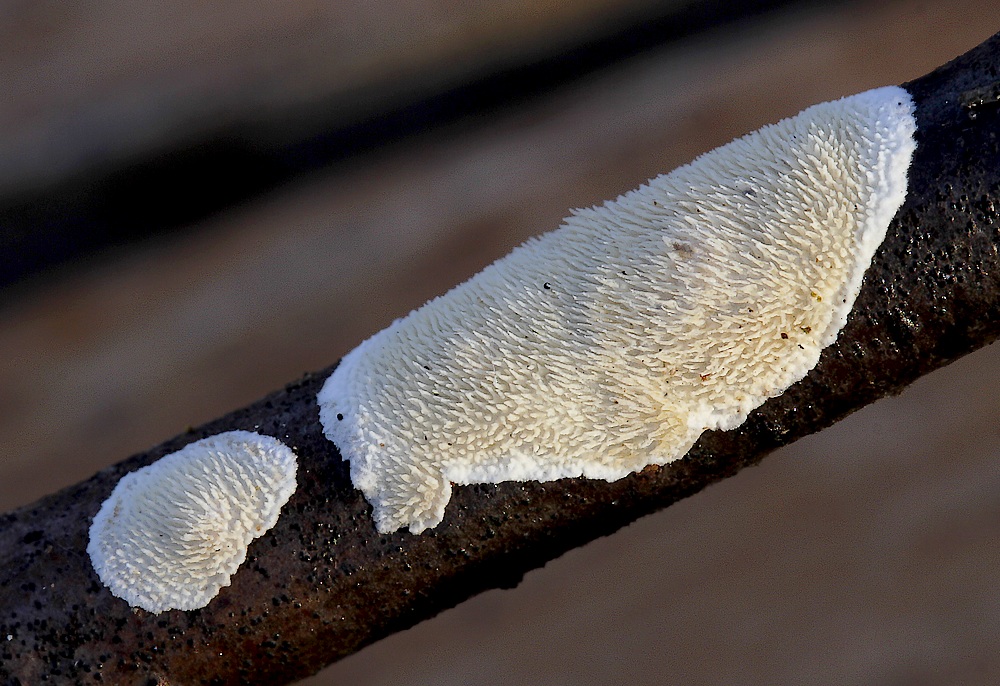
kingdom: Fungi
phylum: Basidiomycota
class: Agaricomycetes
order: Polyporales
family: Steccherinaceae
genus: Steccherinum
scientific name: Steccherinum ochraceum
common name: almindelig skønpig
